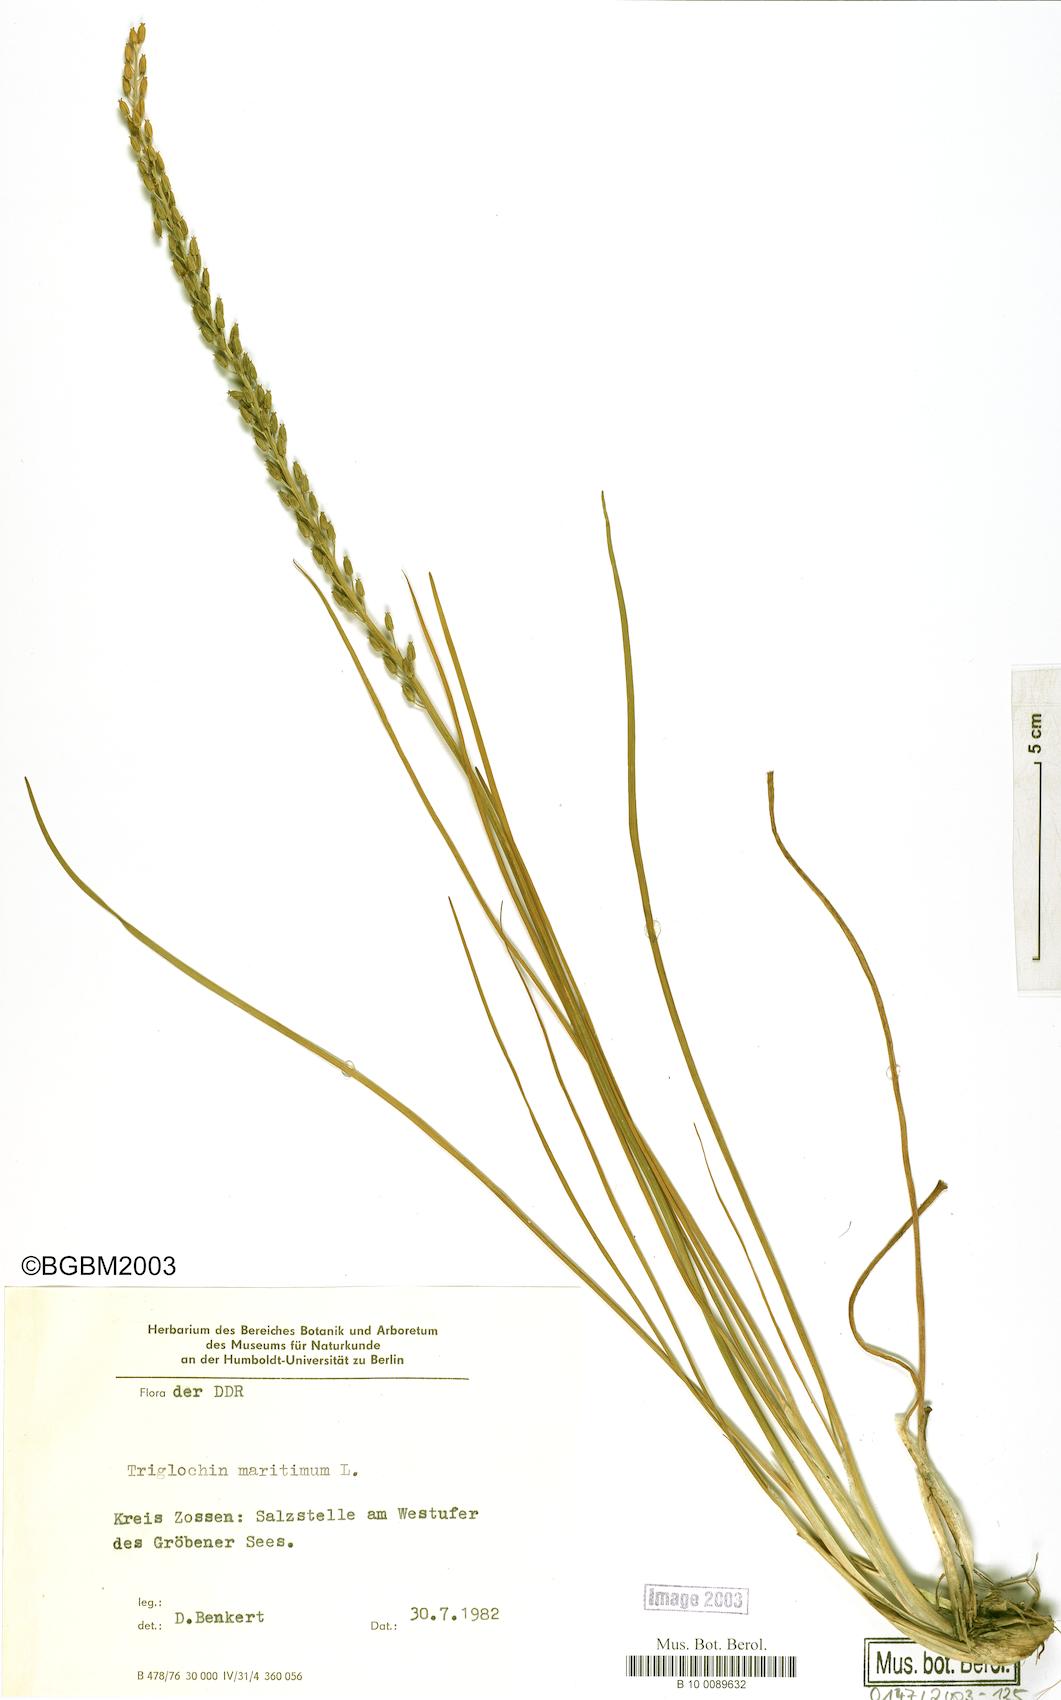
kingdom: Plantae
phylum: Tracheophyta
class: Liliopsida
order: Alismatales
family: Juncaginaceae
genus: Triglochin
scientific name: Triglochin maritima
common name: Sea arrowgrass
